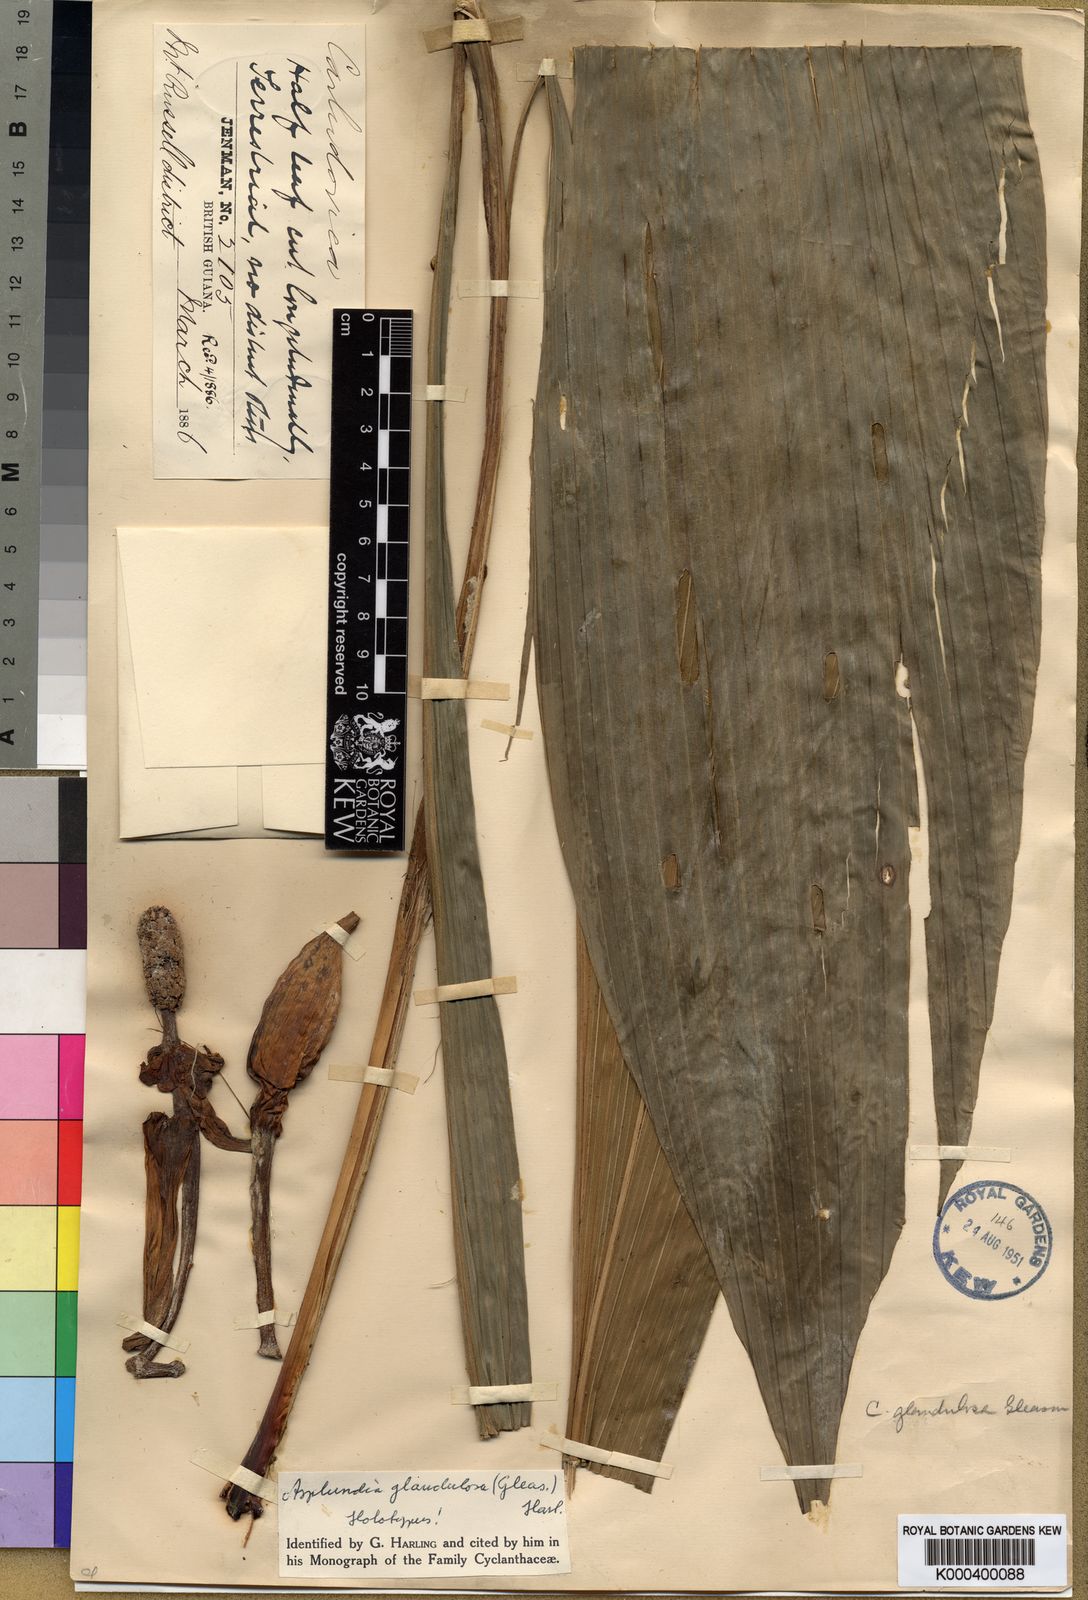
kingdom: Plantae
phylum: Tracheophyta
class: Liliopsida
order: Pandanales
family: Cyclanthaceae
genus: Asplundia
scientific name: Asplundia glandulosa
